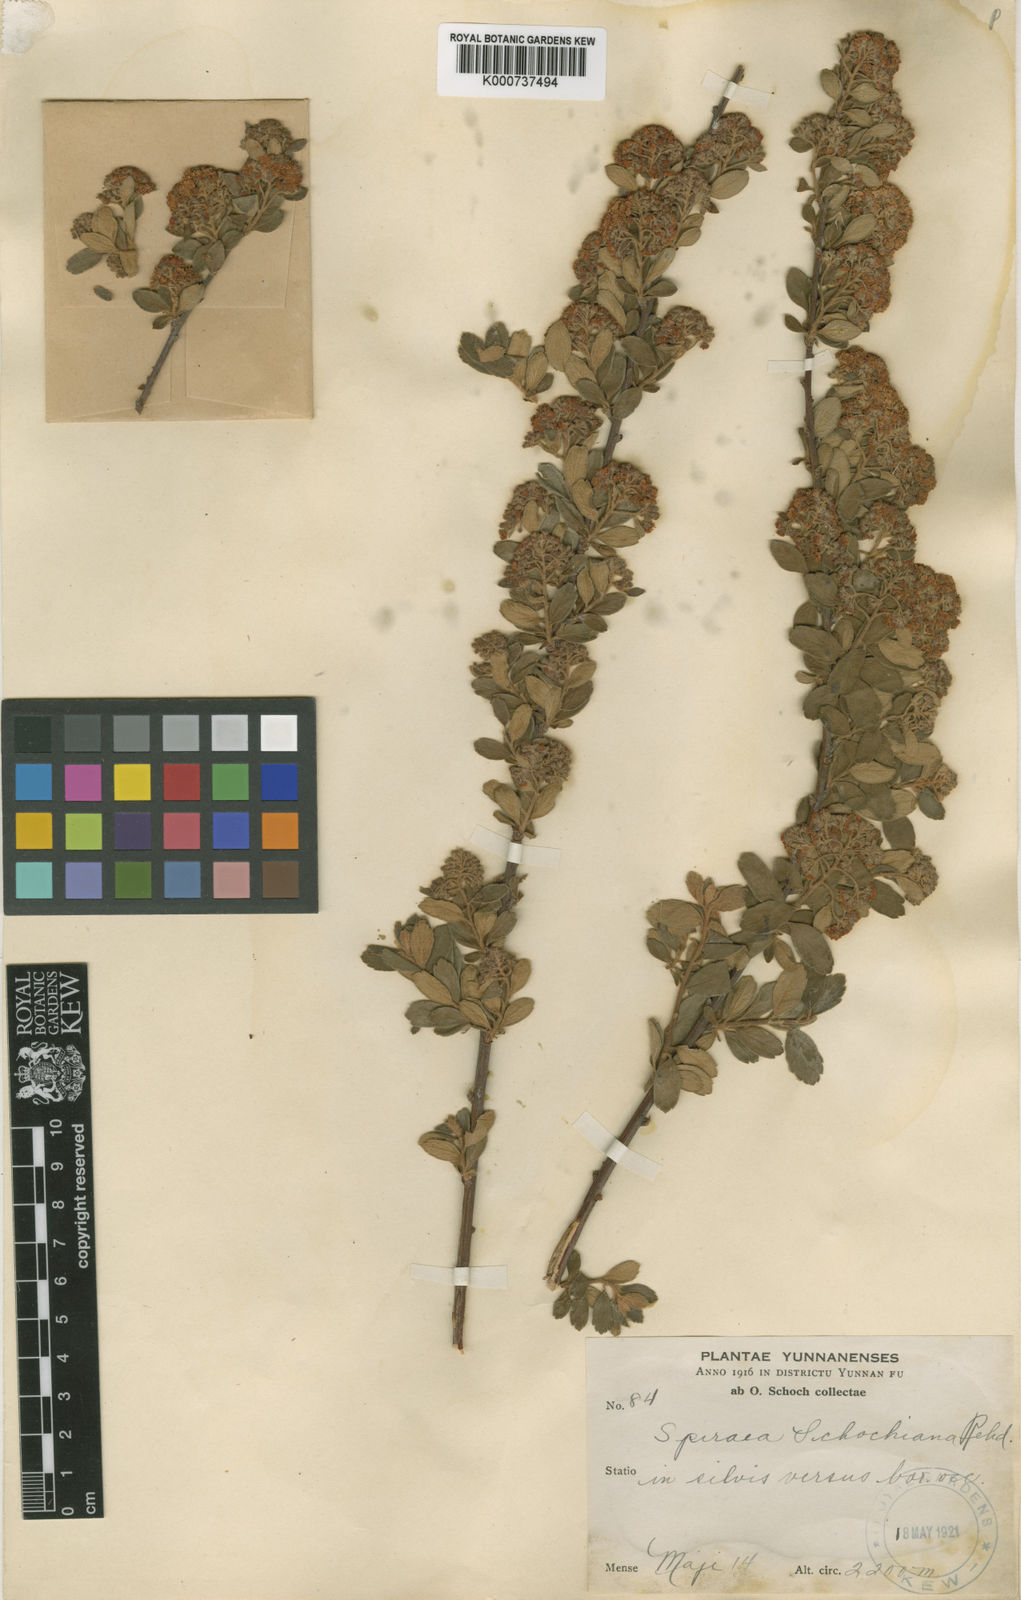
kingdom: Plantae
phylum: Tracheophyta
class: Magnoliopsida
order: Rosales
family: Rosaceae
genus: Spiraea
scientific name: Spiraea schochiana
